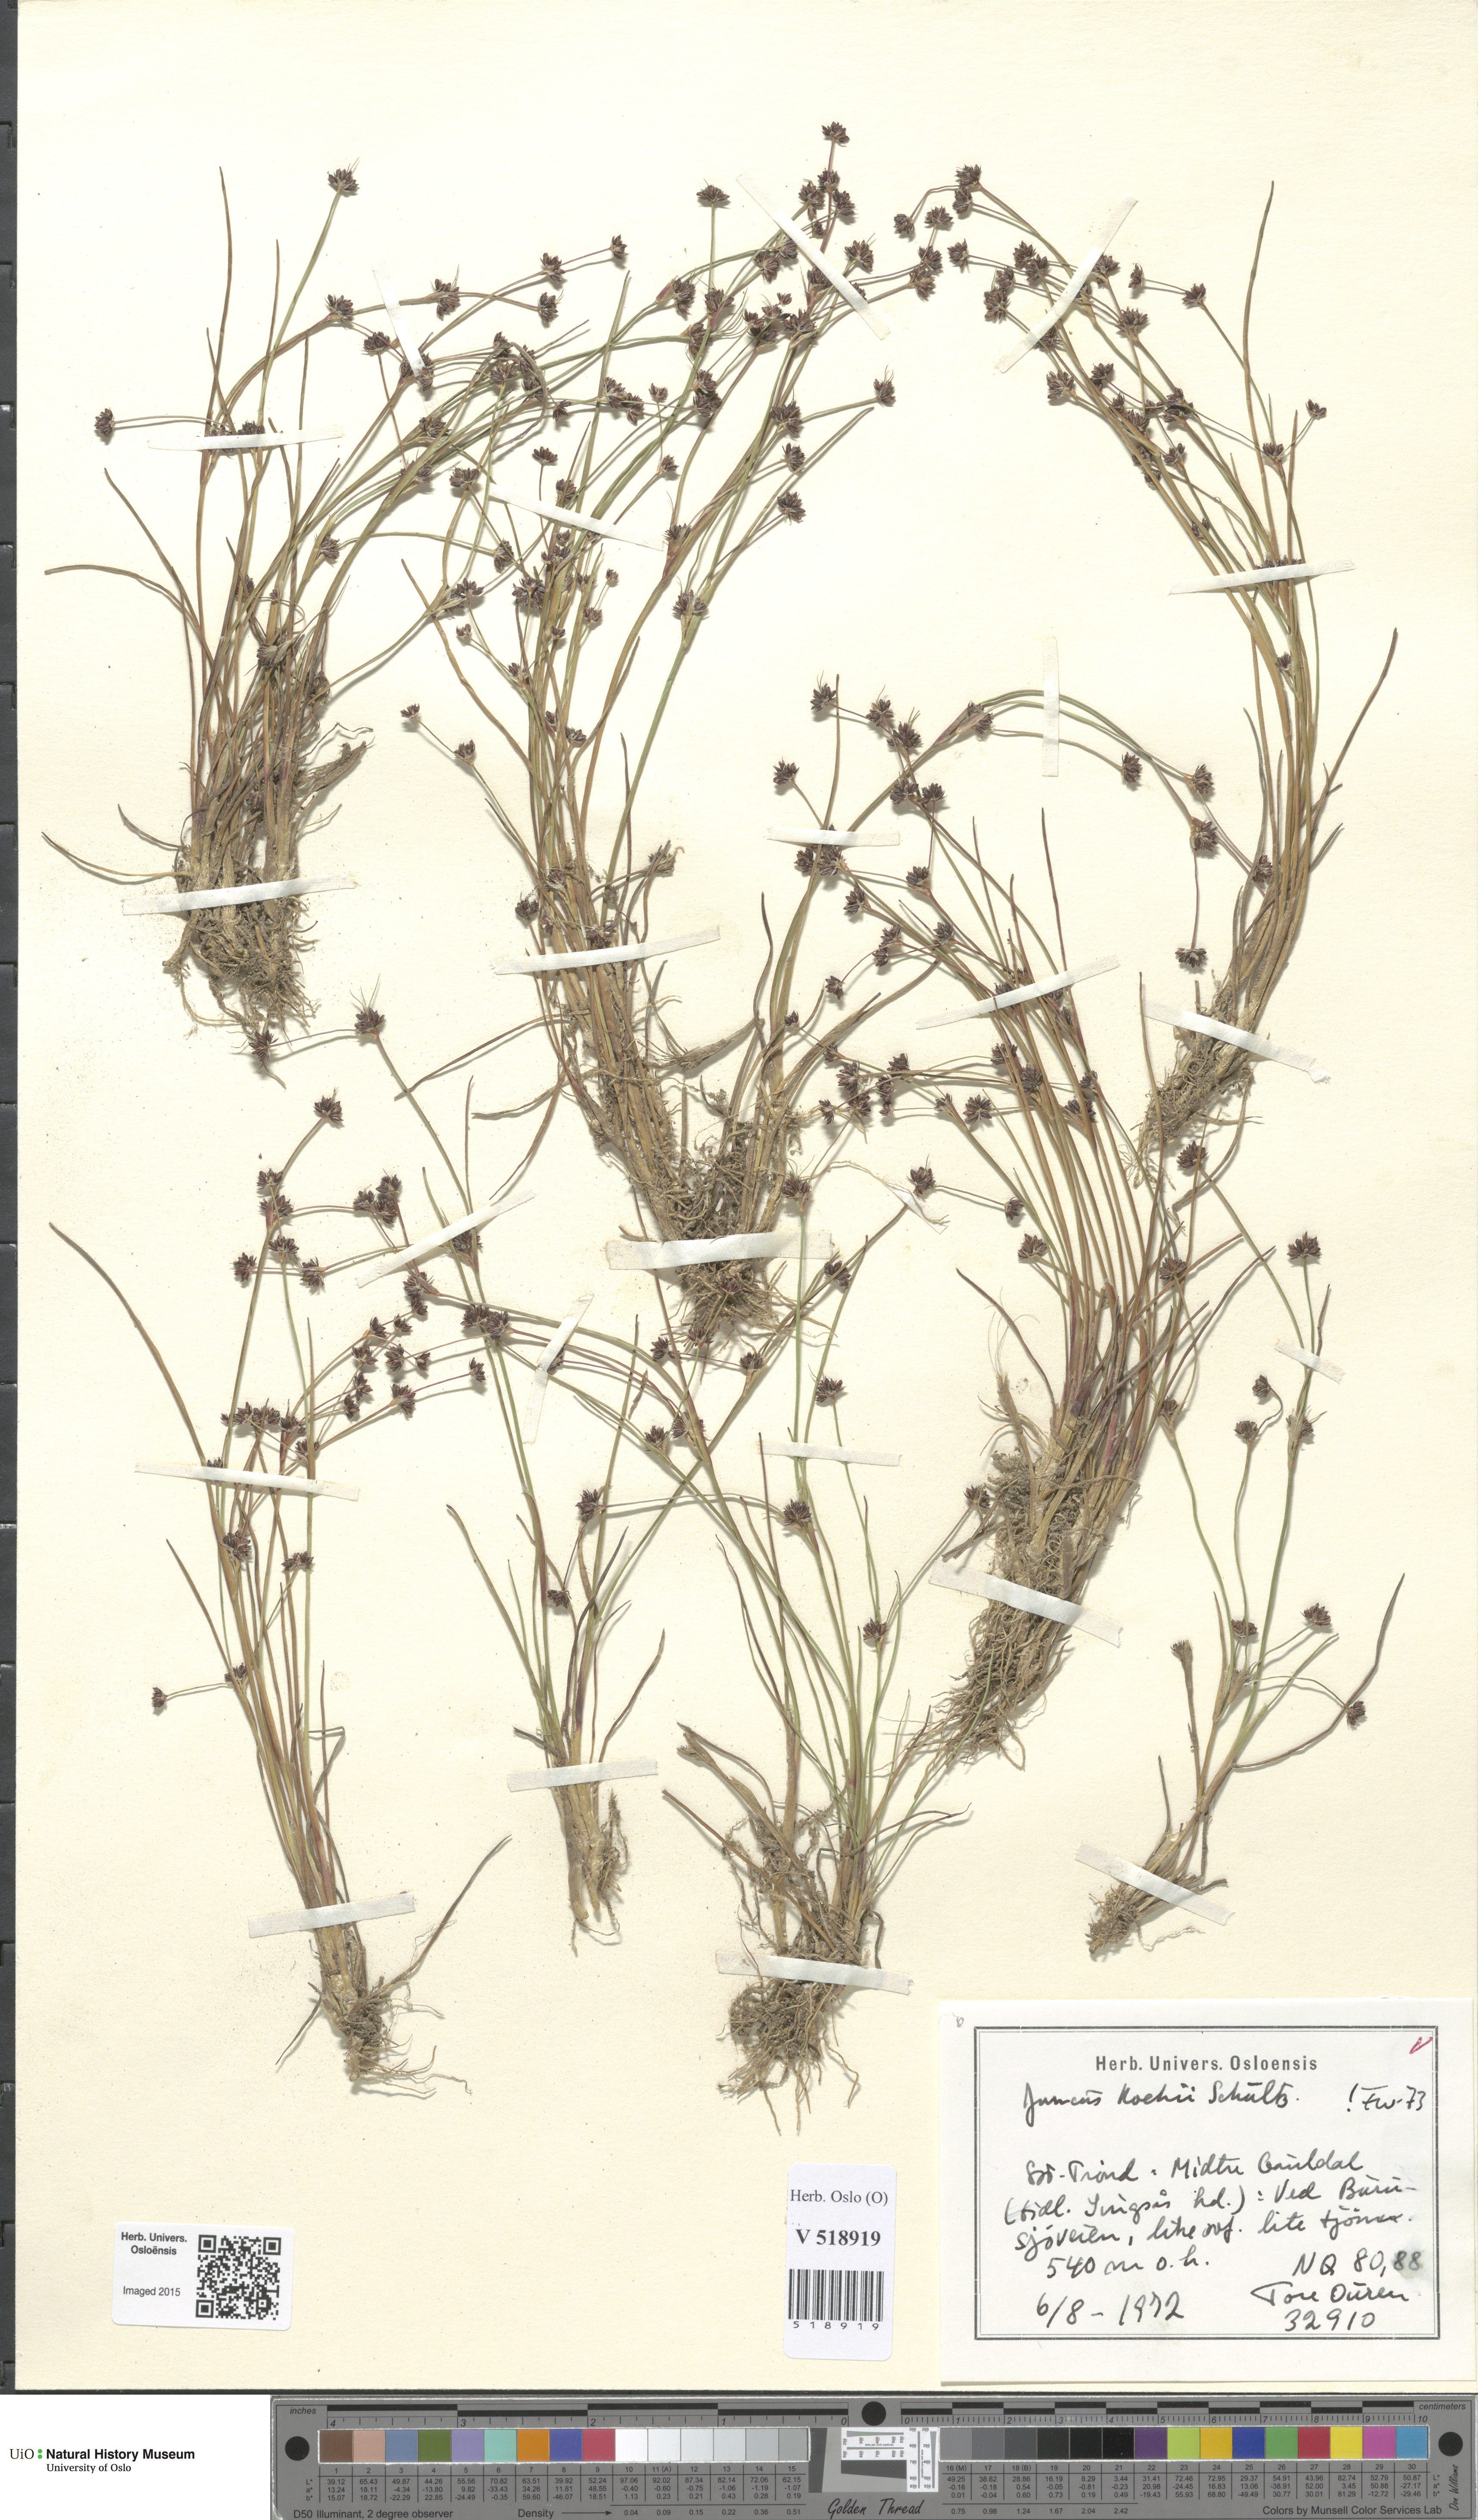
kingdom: Plantae
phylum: Tracheophyta
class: Liliopsida
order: Poales
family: Juncaceae
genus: Juncus
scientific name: Juncus bulbosus
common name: Bulbous rush
